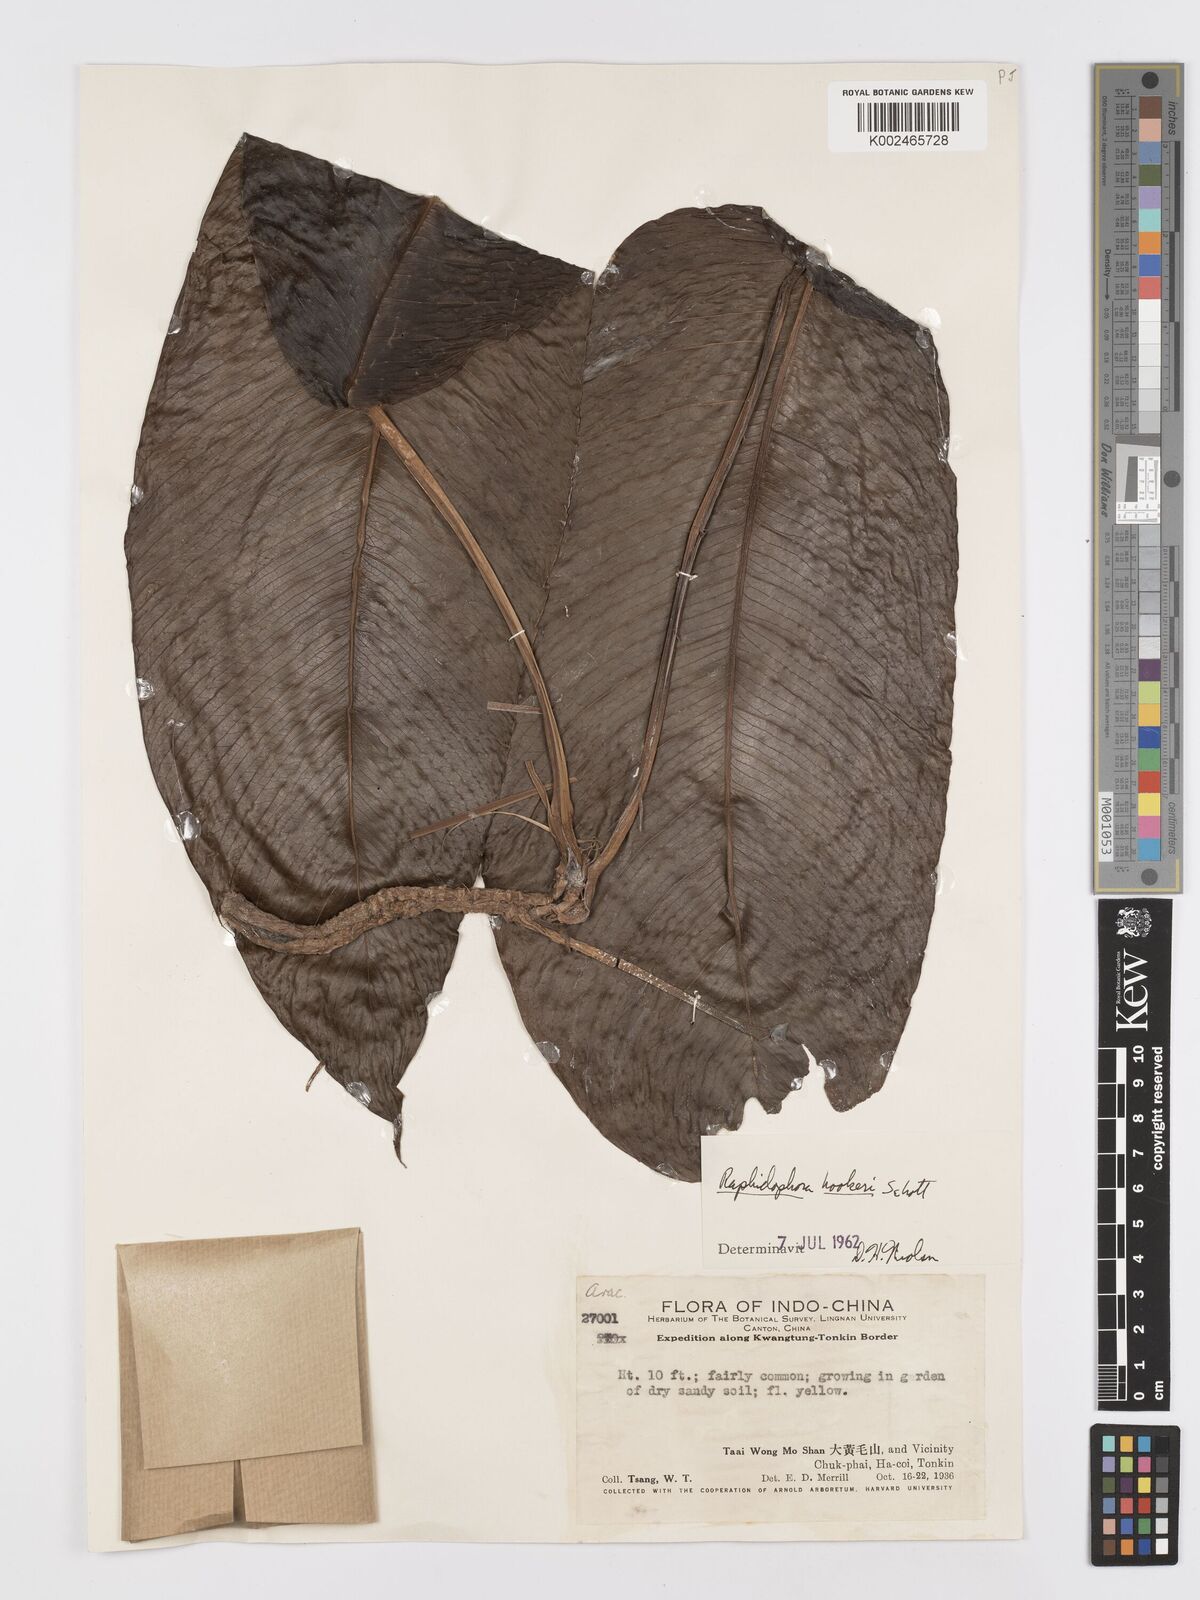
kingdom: Plantae
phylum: Tracheophyta
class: Liliopsida
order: Alismatales
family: Araceae
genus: Rhaphidophora
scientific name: Rhaphidophora hookeri
